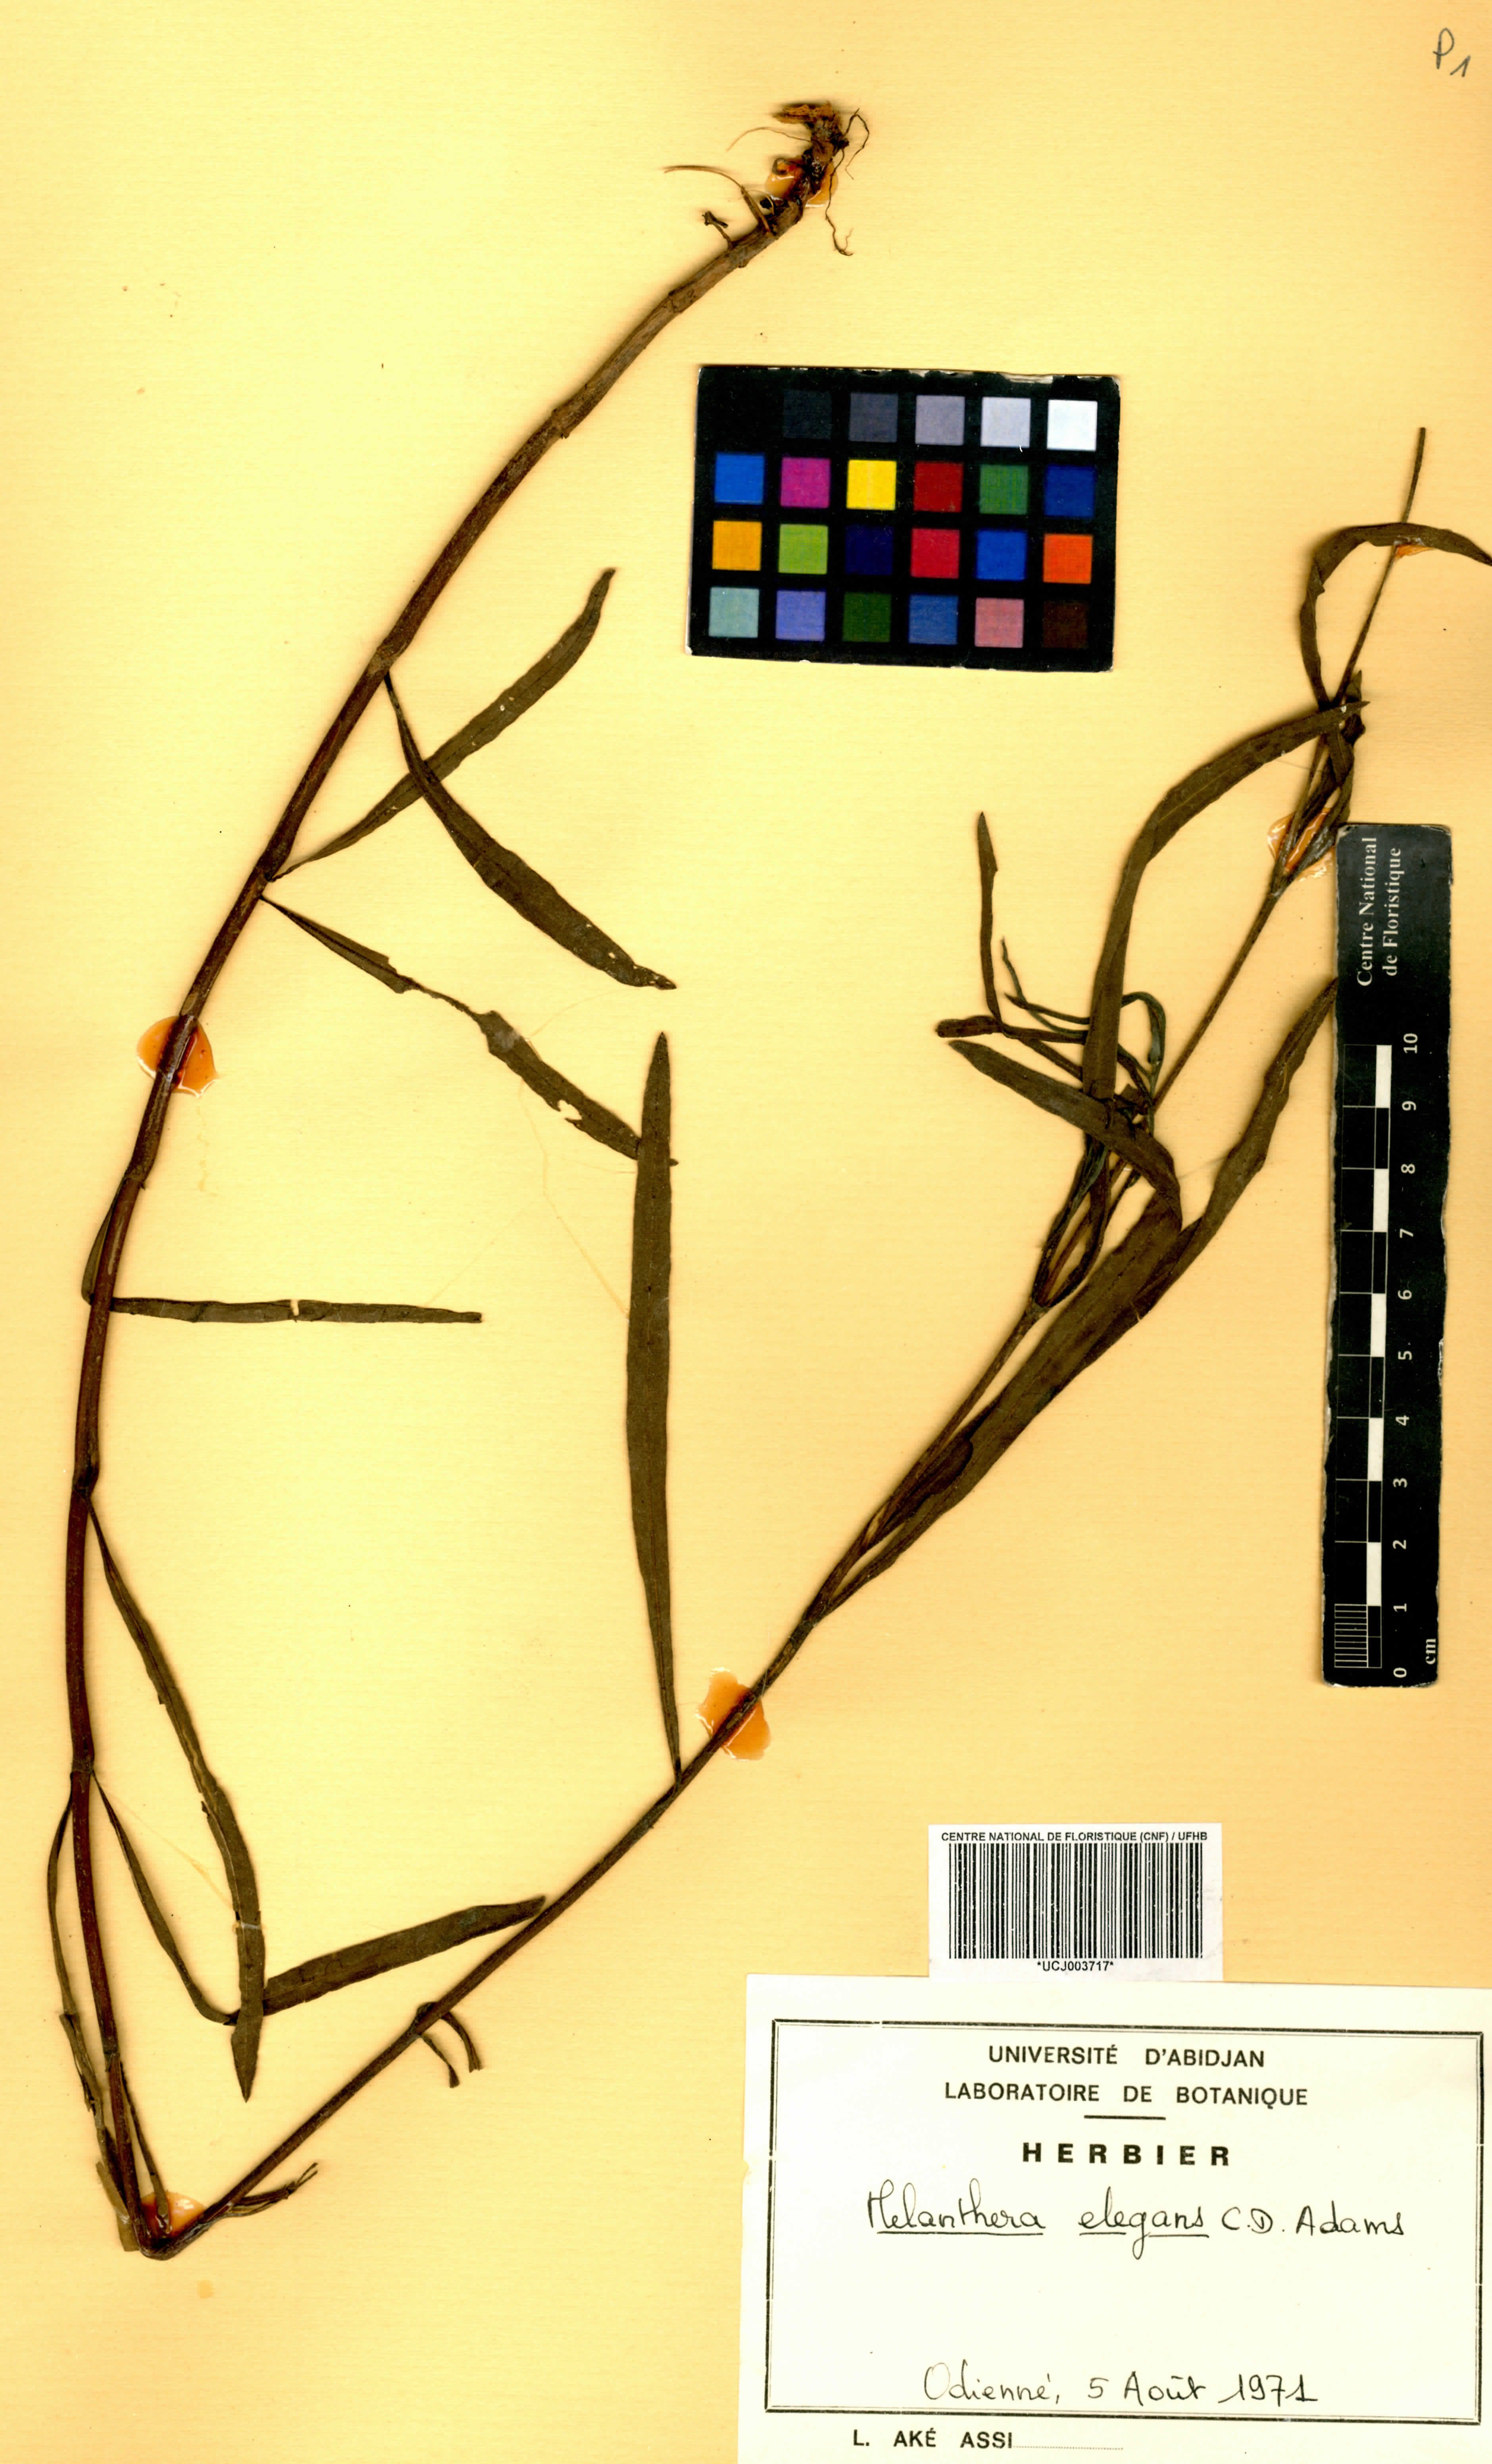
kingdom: Plantae
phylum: Tracheophyta
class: Magnoliopsida
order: Asterales
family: Asteraceae
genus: Aspilia
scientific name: Aspilia lisowskiana
